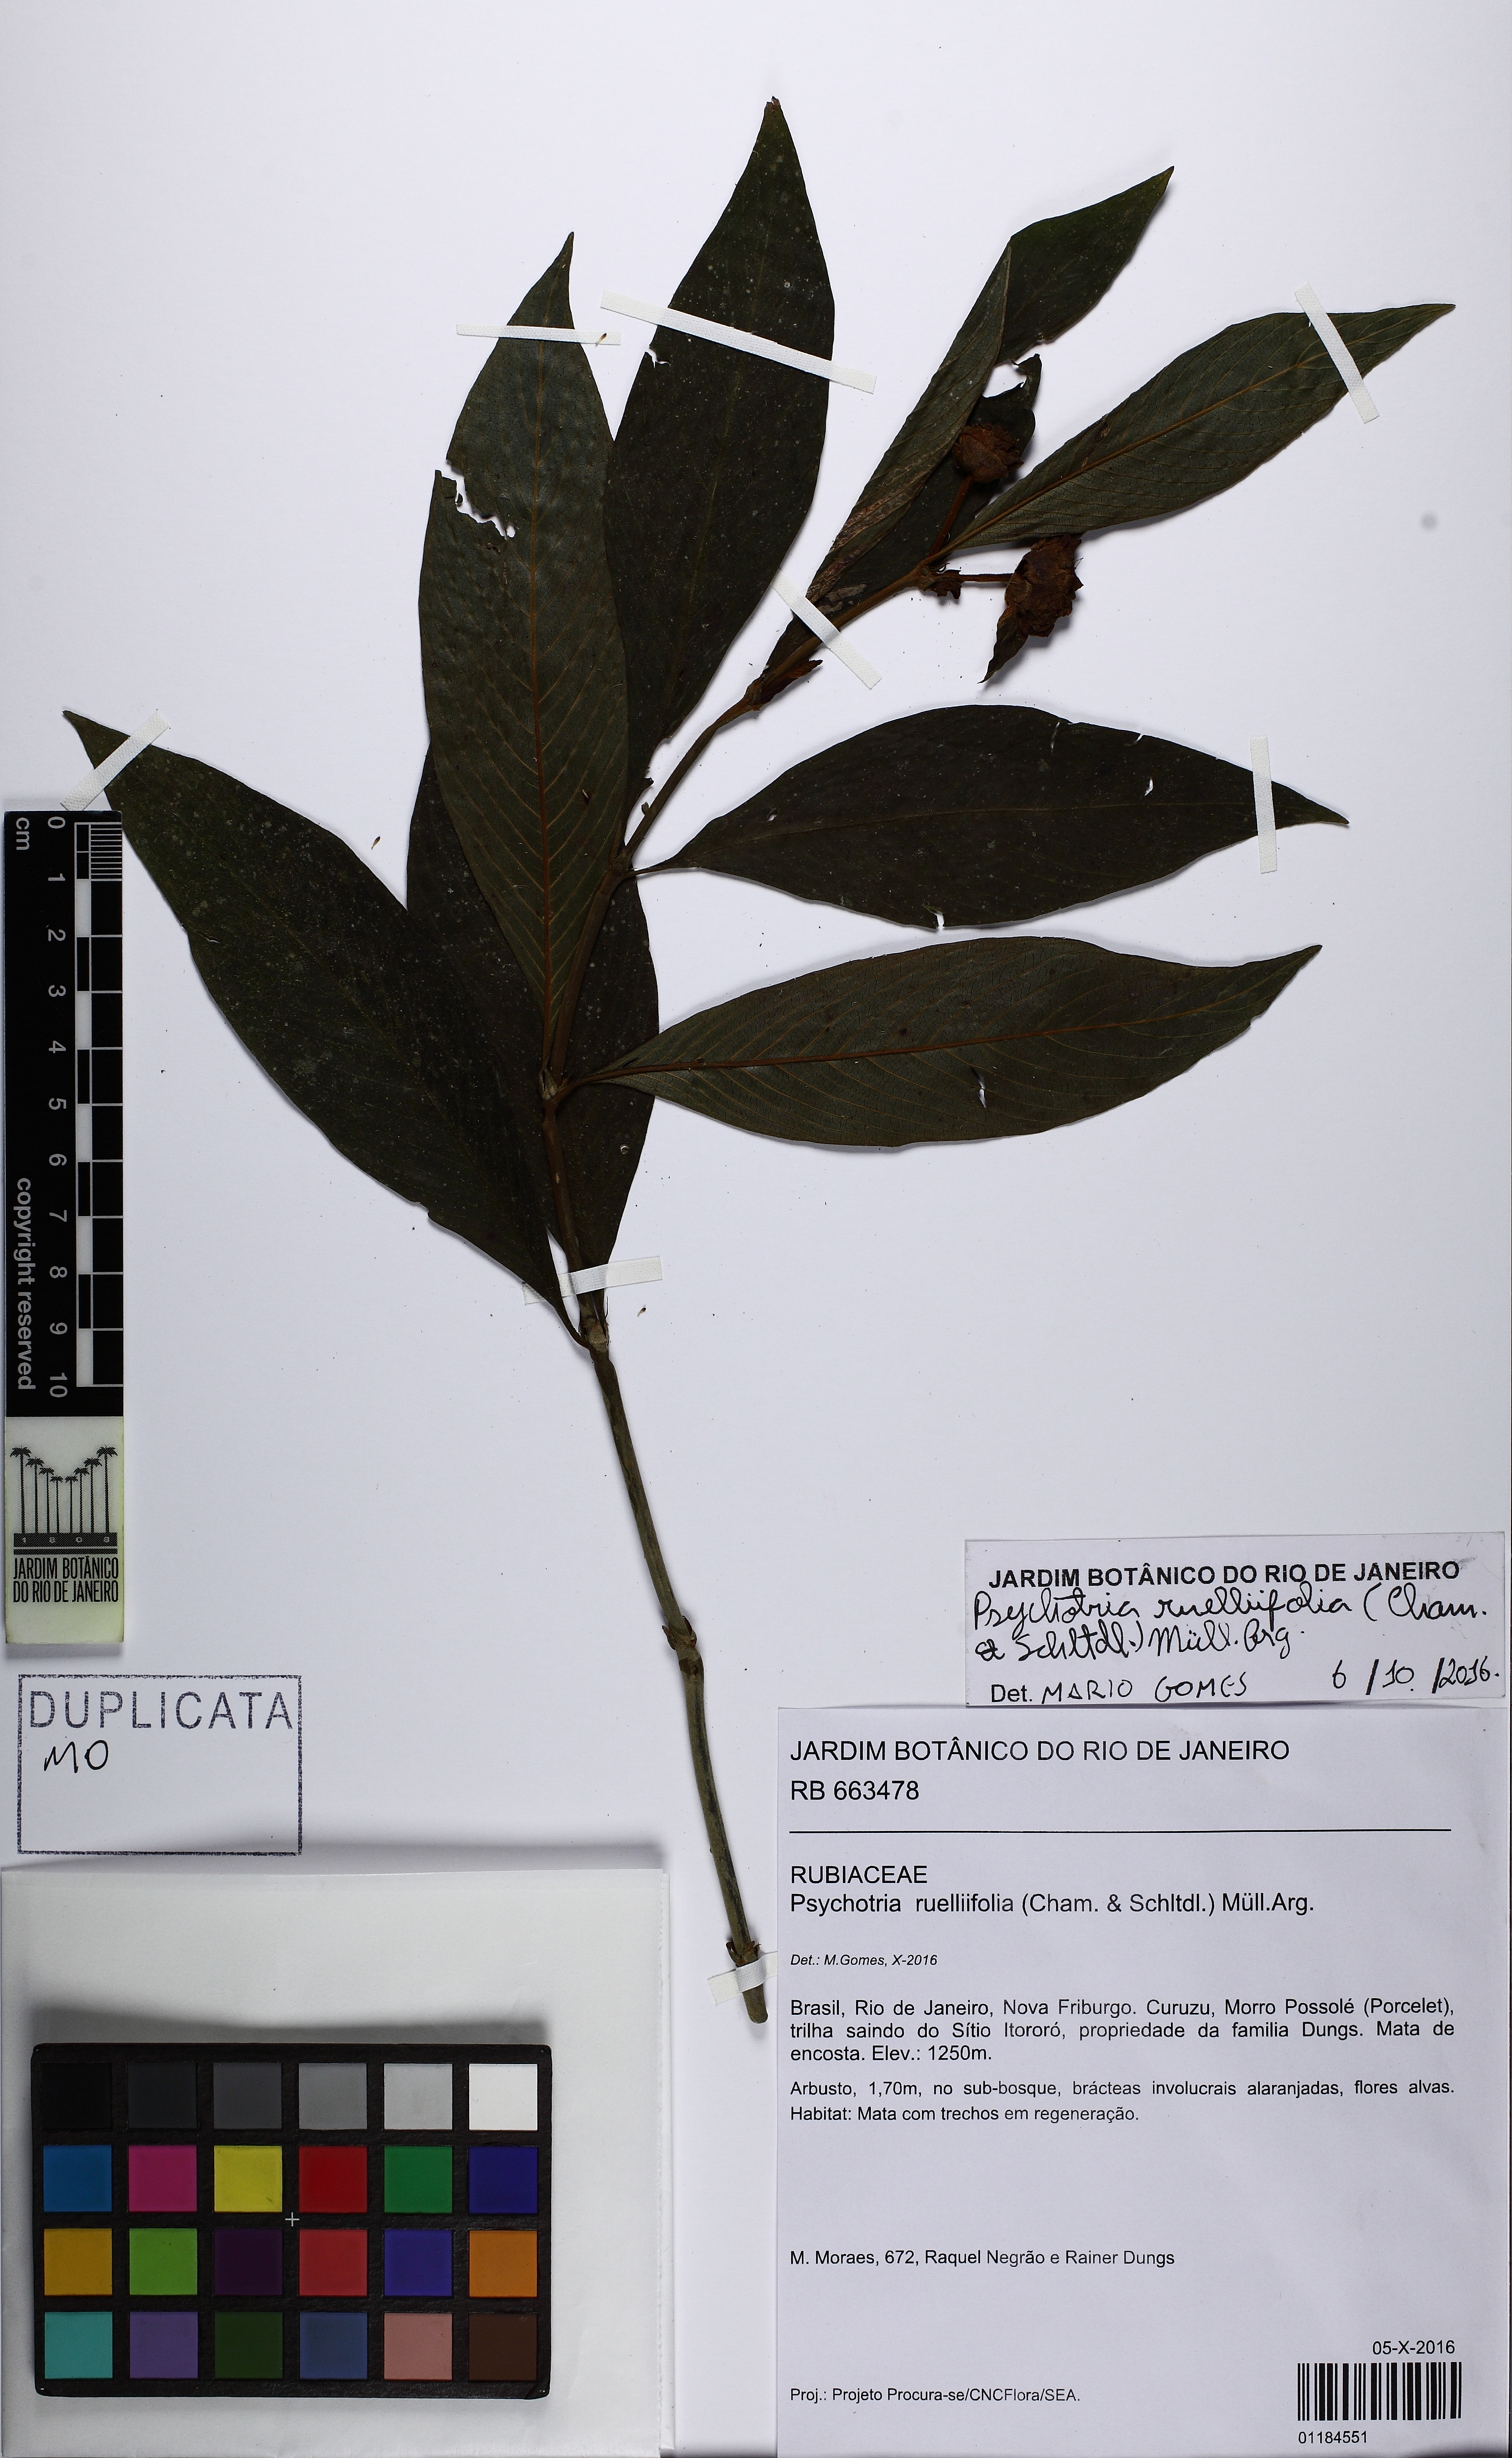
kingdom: Plantae
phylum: Tracheophyta
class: Magnoliopsida
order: Gentianales
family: Rubiaceae
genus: Palicourea
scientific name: Palicourea ruelliifolia
